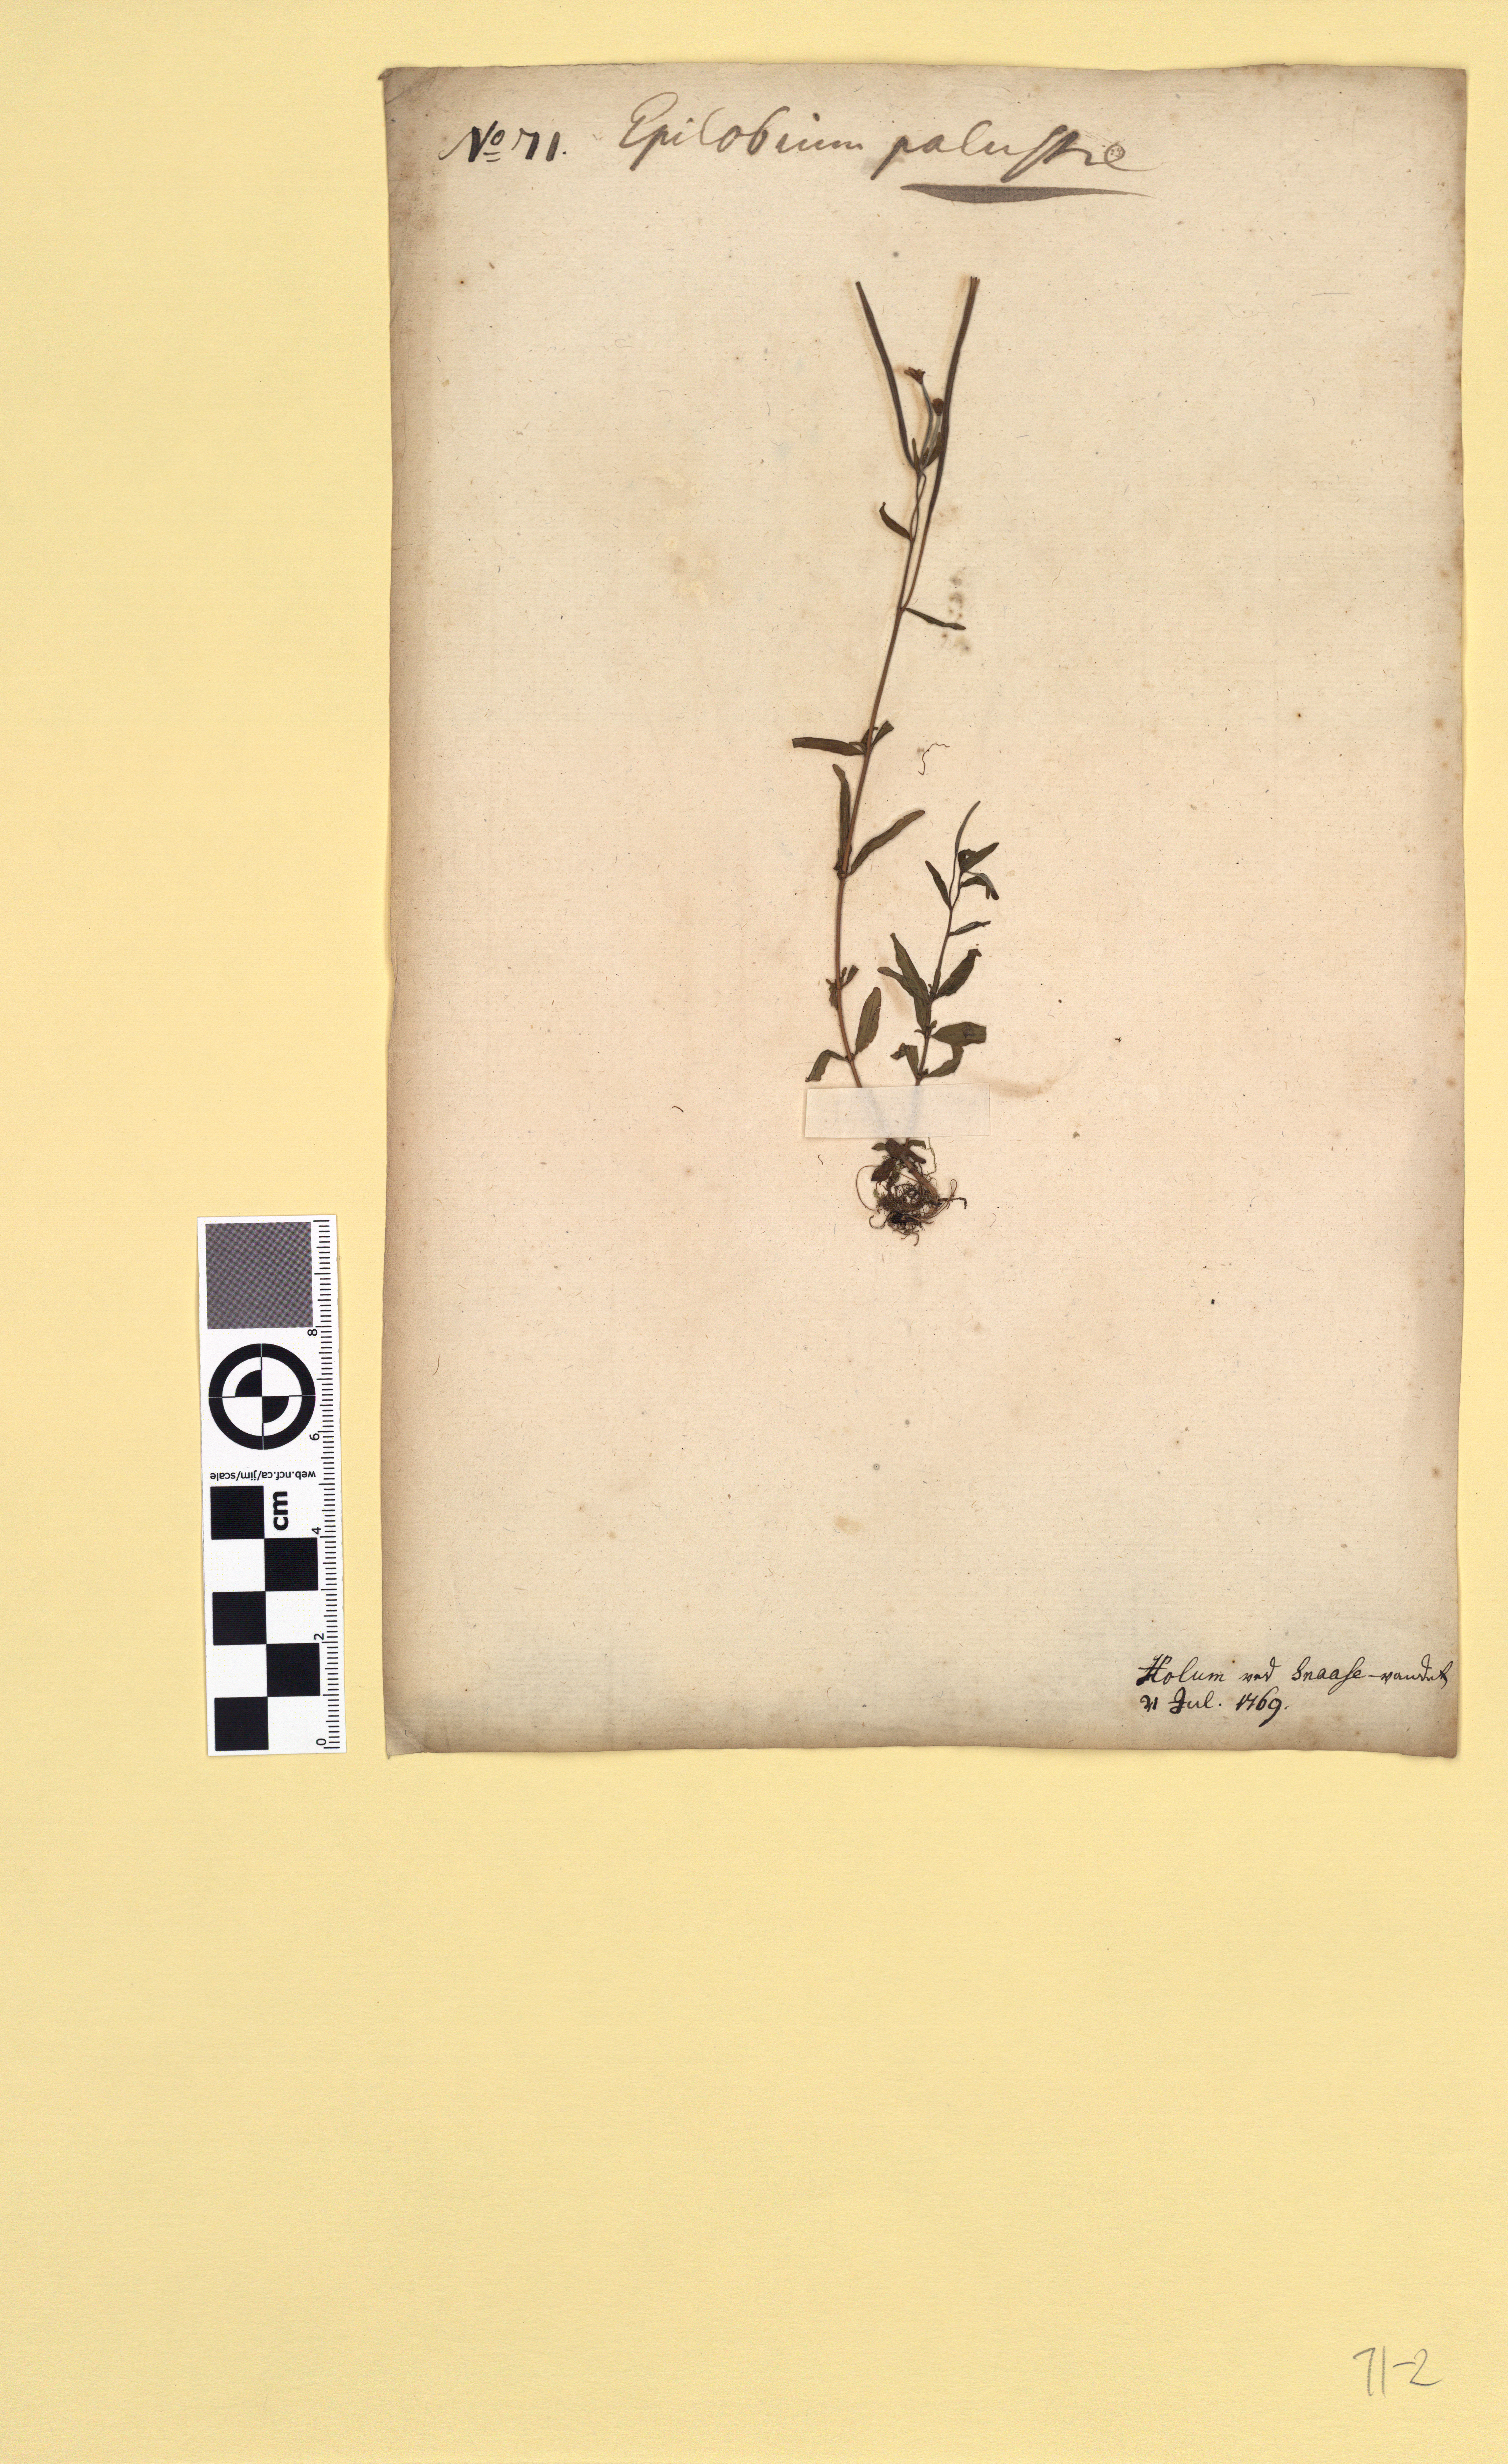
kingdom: Plantae
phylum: Tracheophyta
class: Magnoliopsida
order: Myrtales
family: Onagraceae
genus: Epilobium
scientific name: Epilobium palustre
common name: Marsh willowherb
